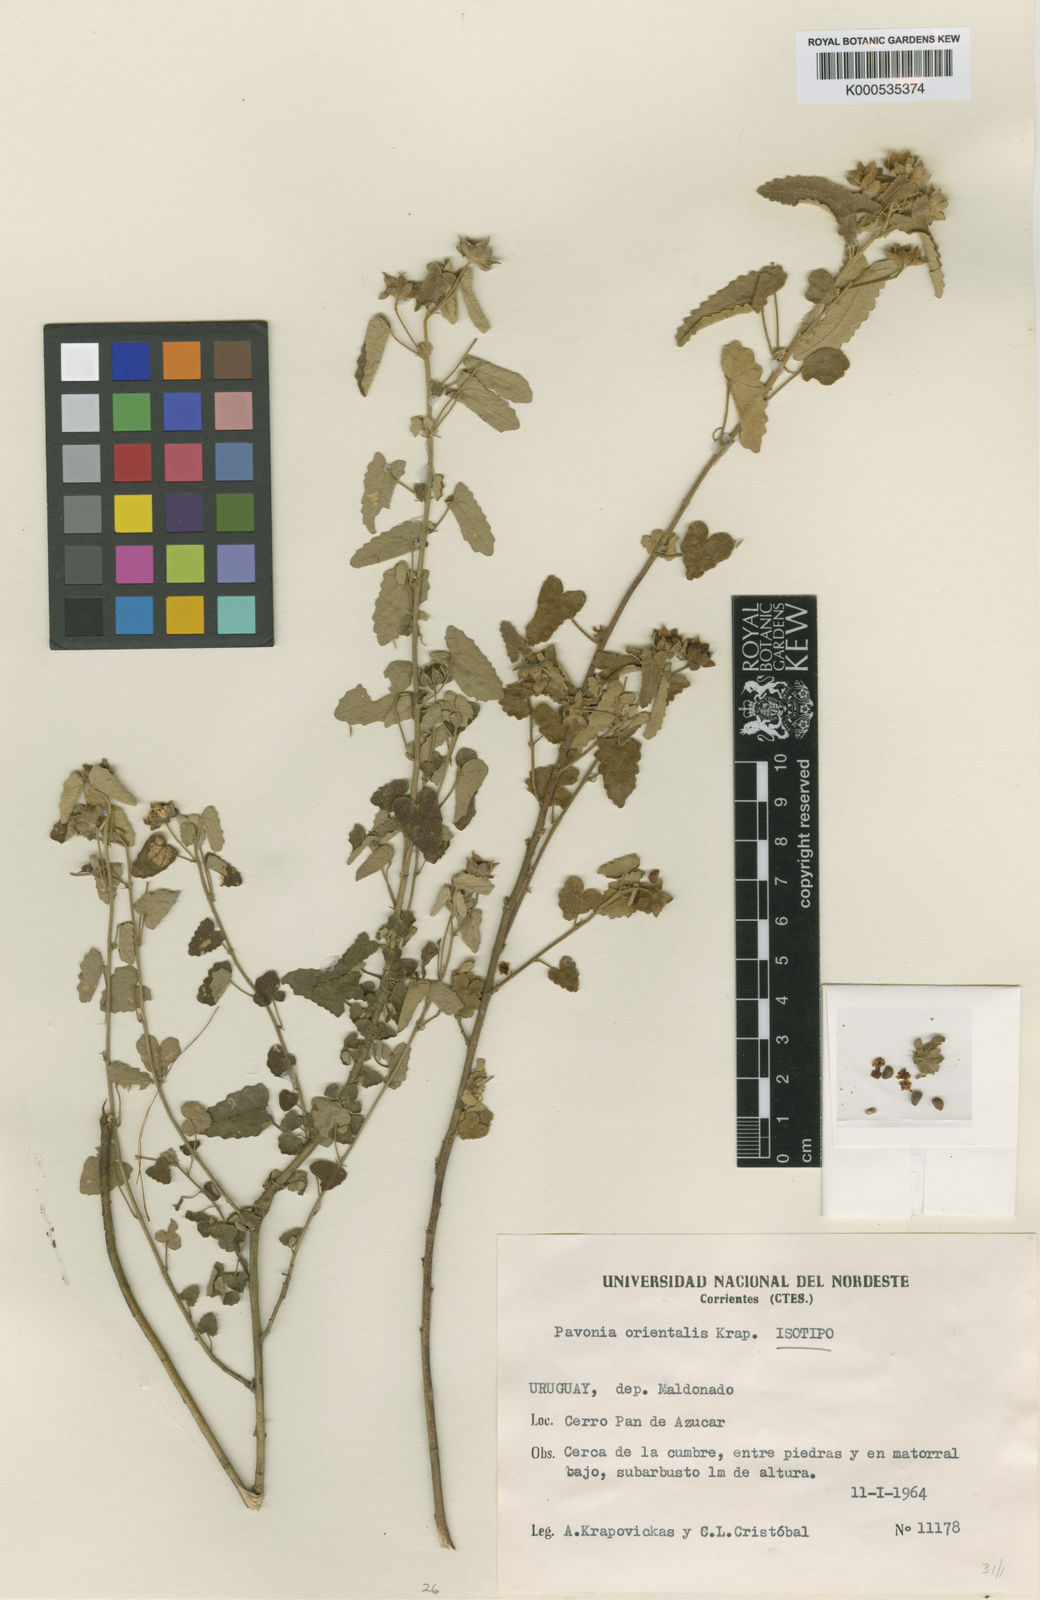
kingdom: Plantae
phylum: Tracheophyta
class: Magnoliopsida
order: Malvales
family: Malvaceae
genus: Pavonia
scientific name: Pavonia orientalis
